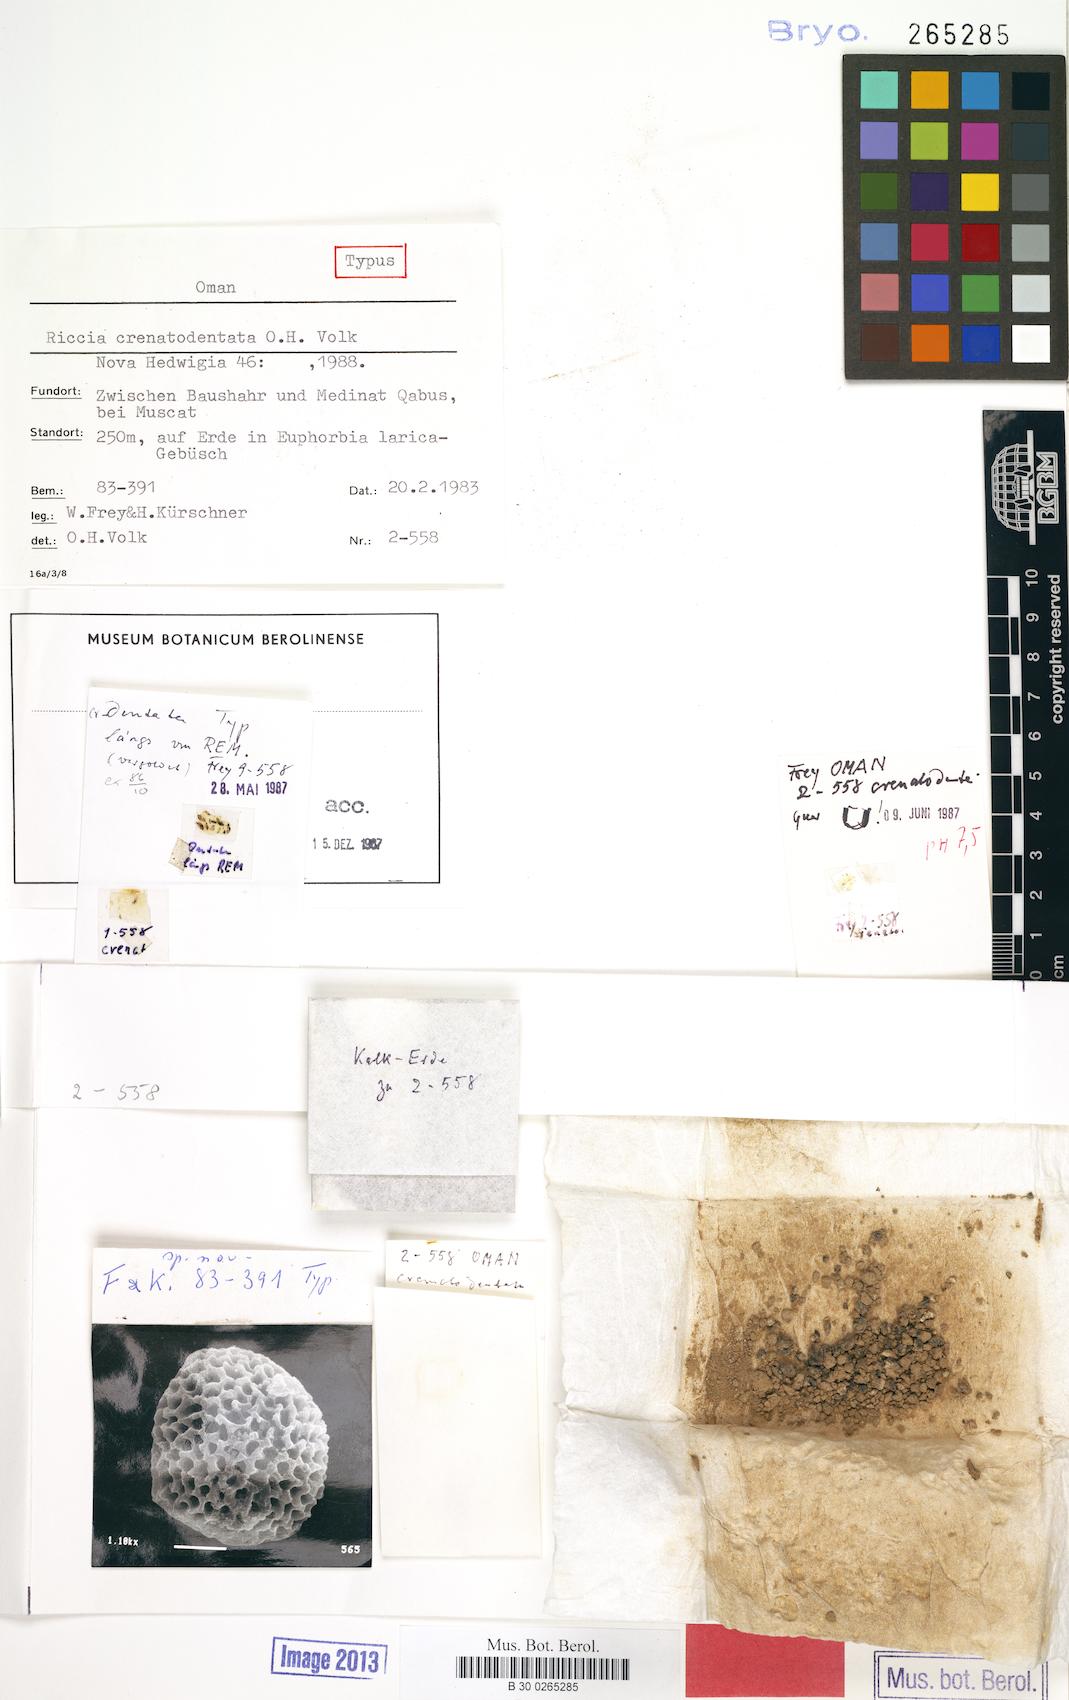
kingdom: Plantae
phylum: Marchantiophyta
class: Marchantiopsida
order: Marchantiales
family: Ricciaceae
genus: Riccia
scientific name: Riccia crenatodentata
